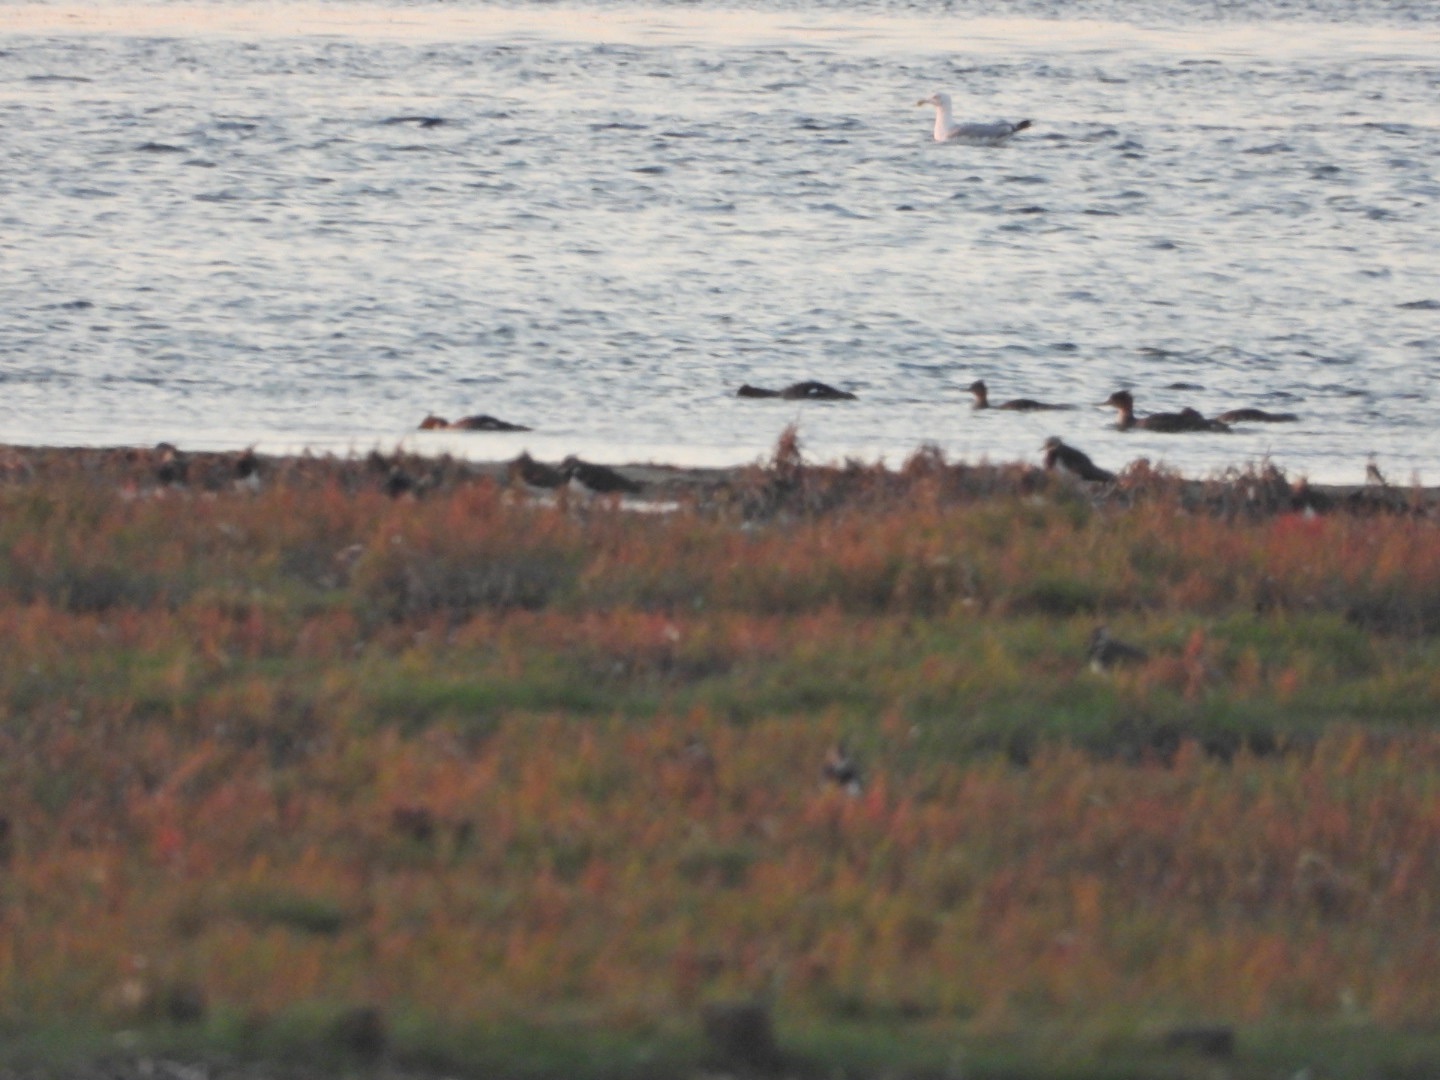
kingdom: Animalia
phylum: Chordata
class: Aves
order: Anseriformes
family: Anatidae
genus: Mergus
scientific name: Mergus serrator
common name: Toppet skallesluger
